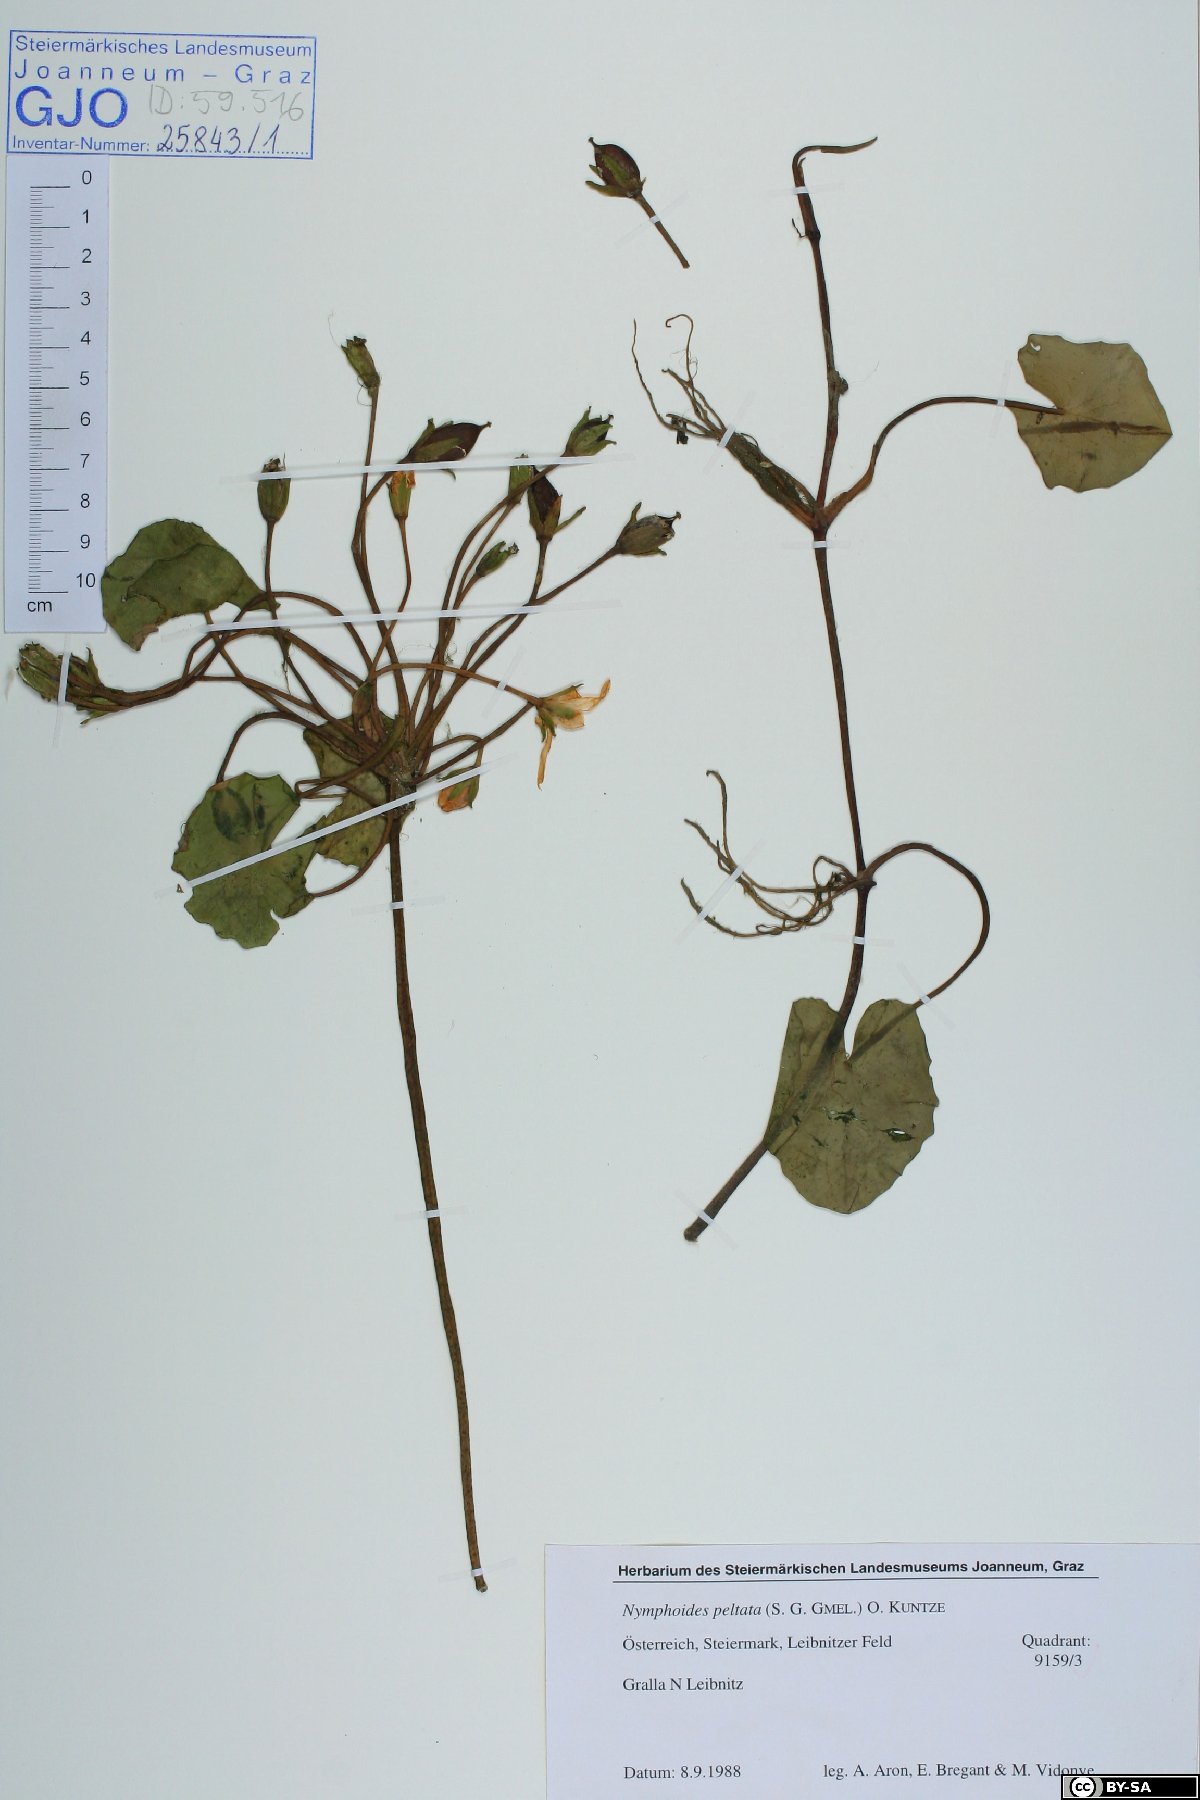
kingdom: Plantae
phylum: Tracheophyta
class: Magnoliopsida
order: Asterales
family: Menyanthaceae
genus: Nymphoides
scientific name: Nymphoides peltata
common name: Fringed water-lily
